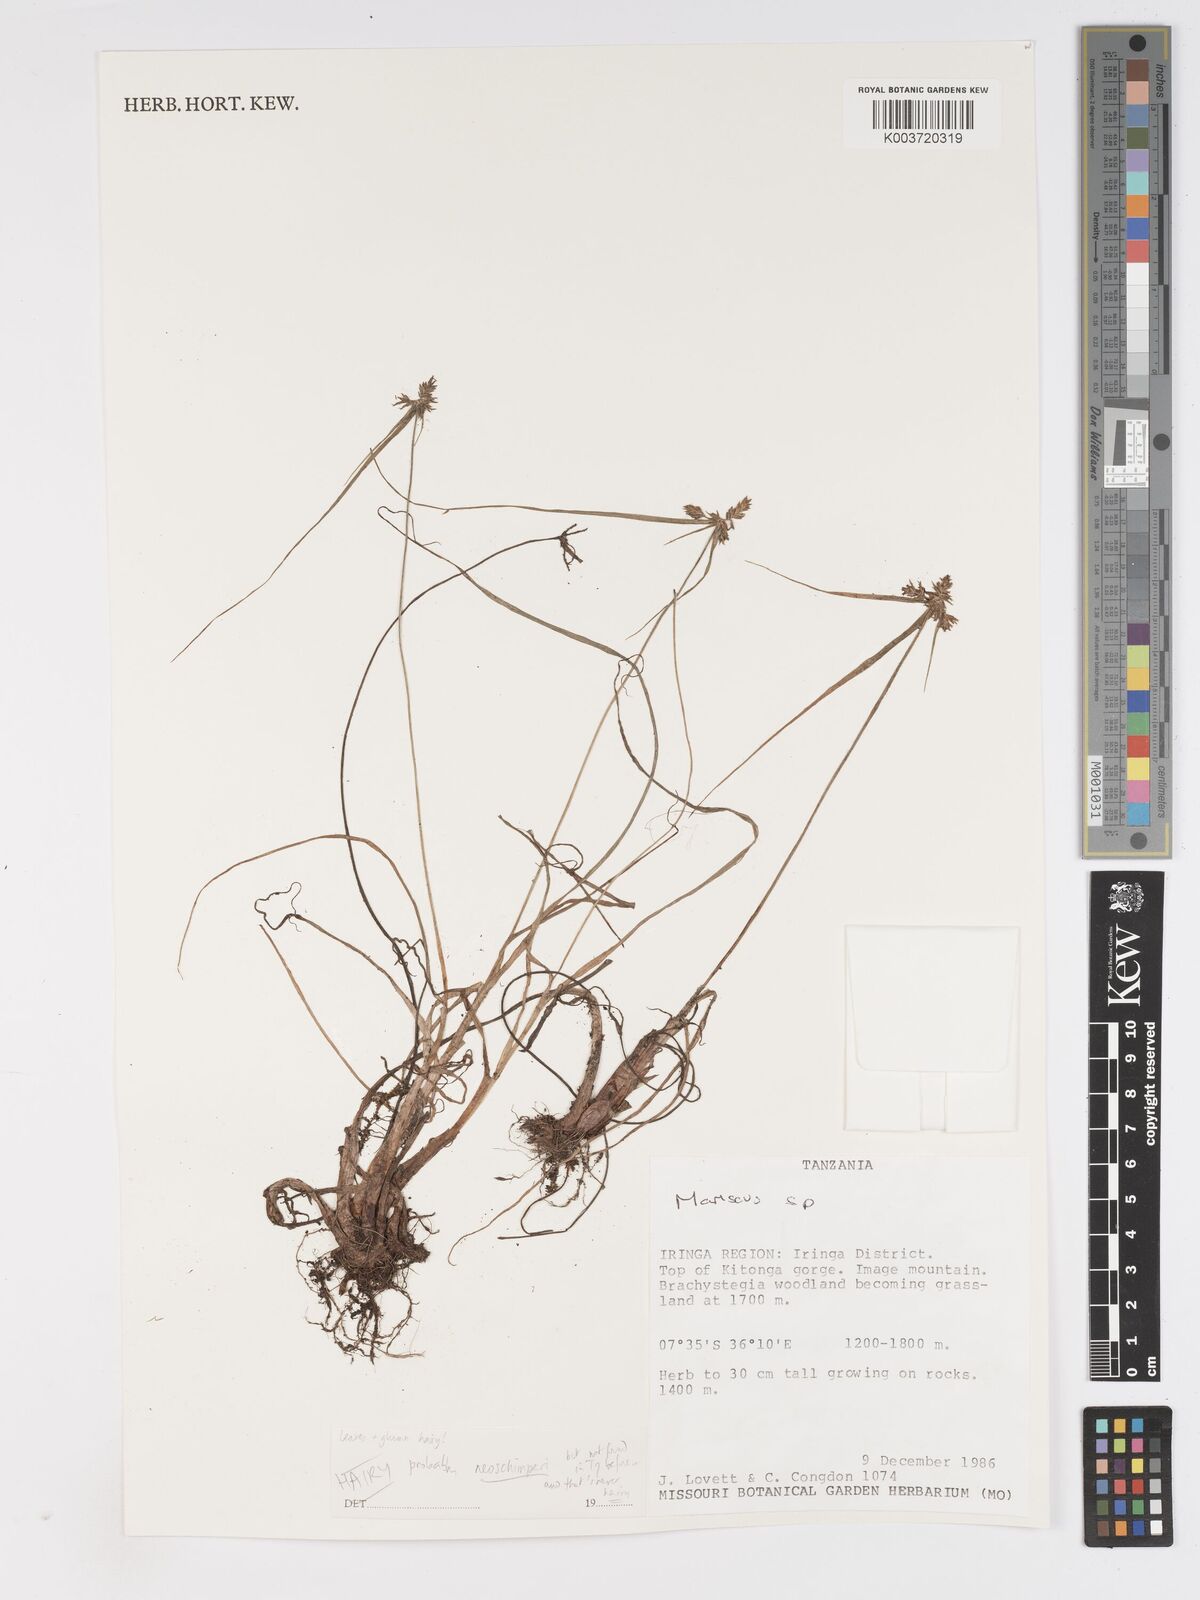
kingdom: Plantae
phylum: Tracheophyta
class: Liliopsida
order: Poales
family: Cyperaceae
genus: Cyperus
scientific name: Cyperus
